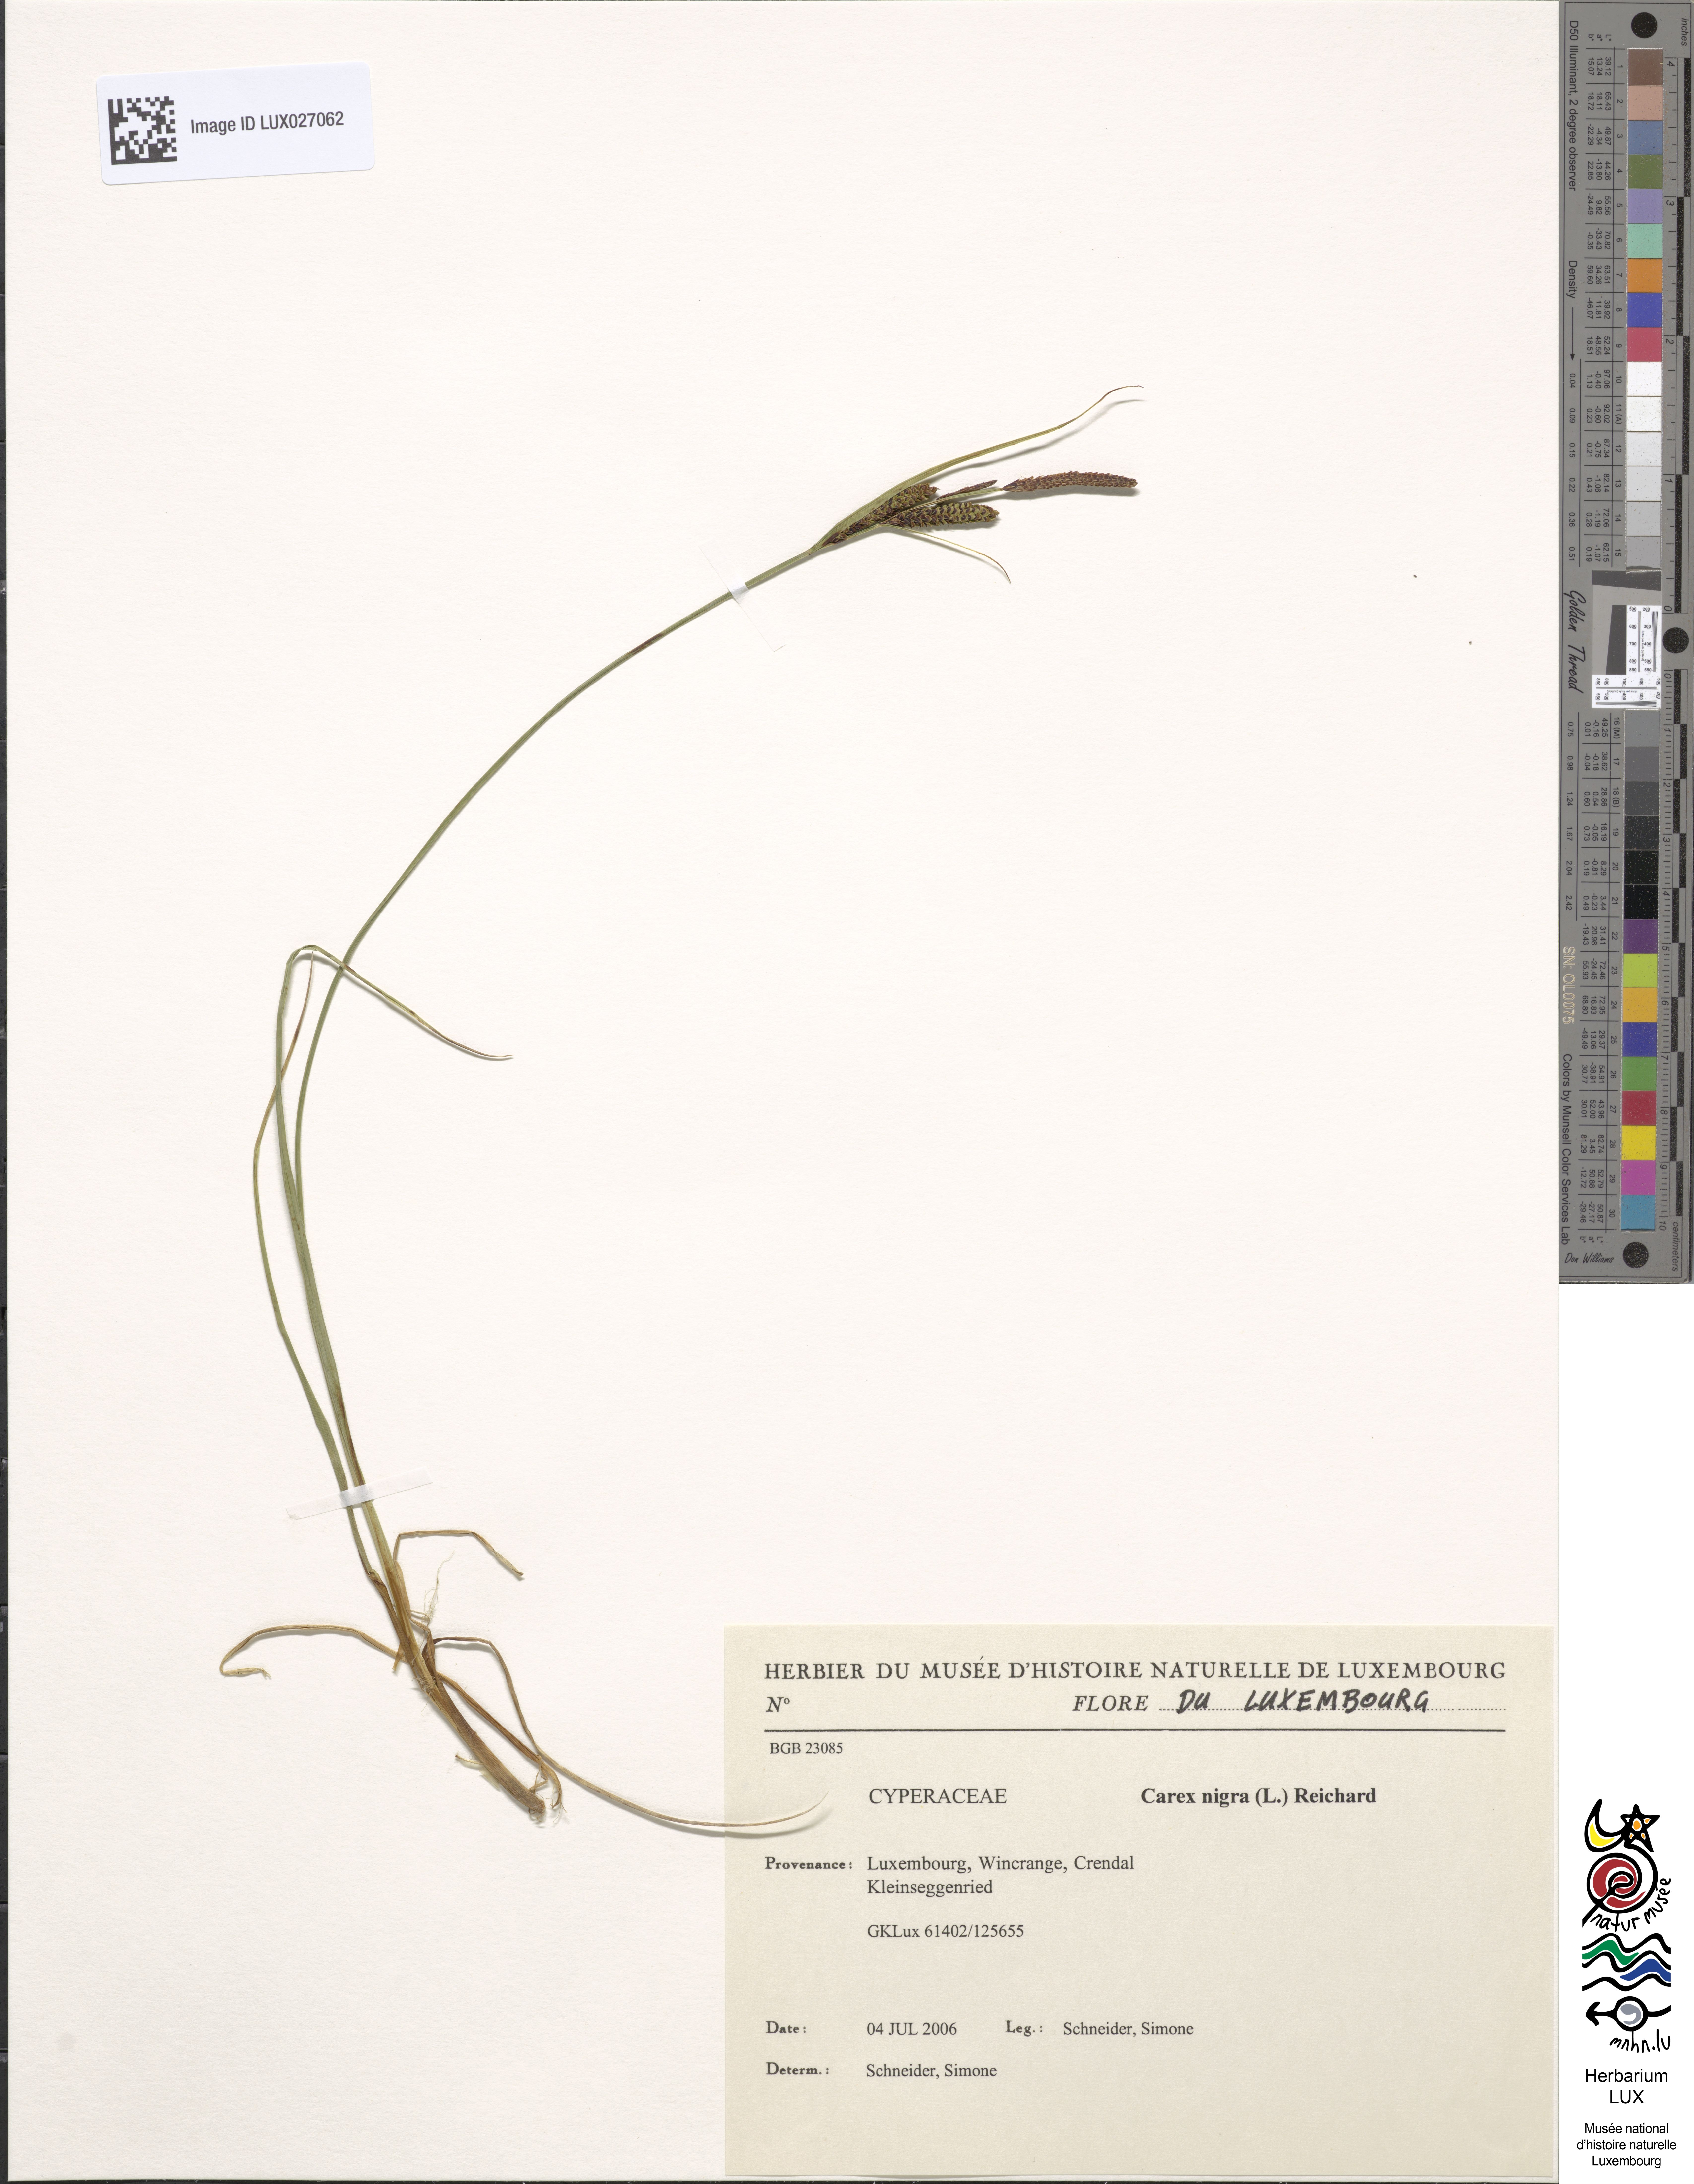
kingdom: Plantae
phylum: Tracheophyta
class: Liliopsida
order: Poales
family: Cyperaceae
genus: Carex
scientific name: Carex nigra
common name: Common sedge
